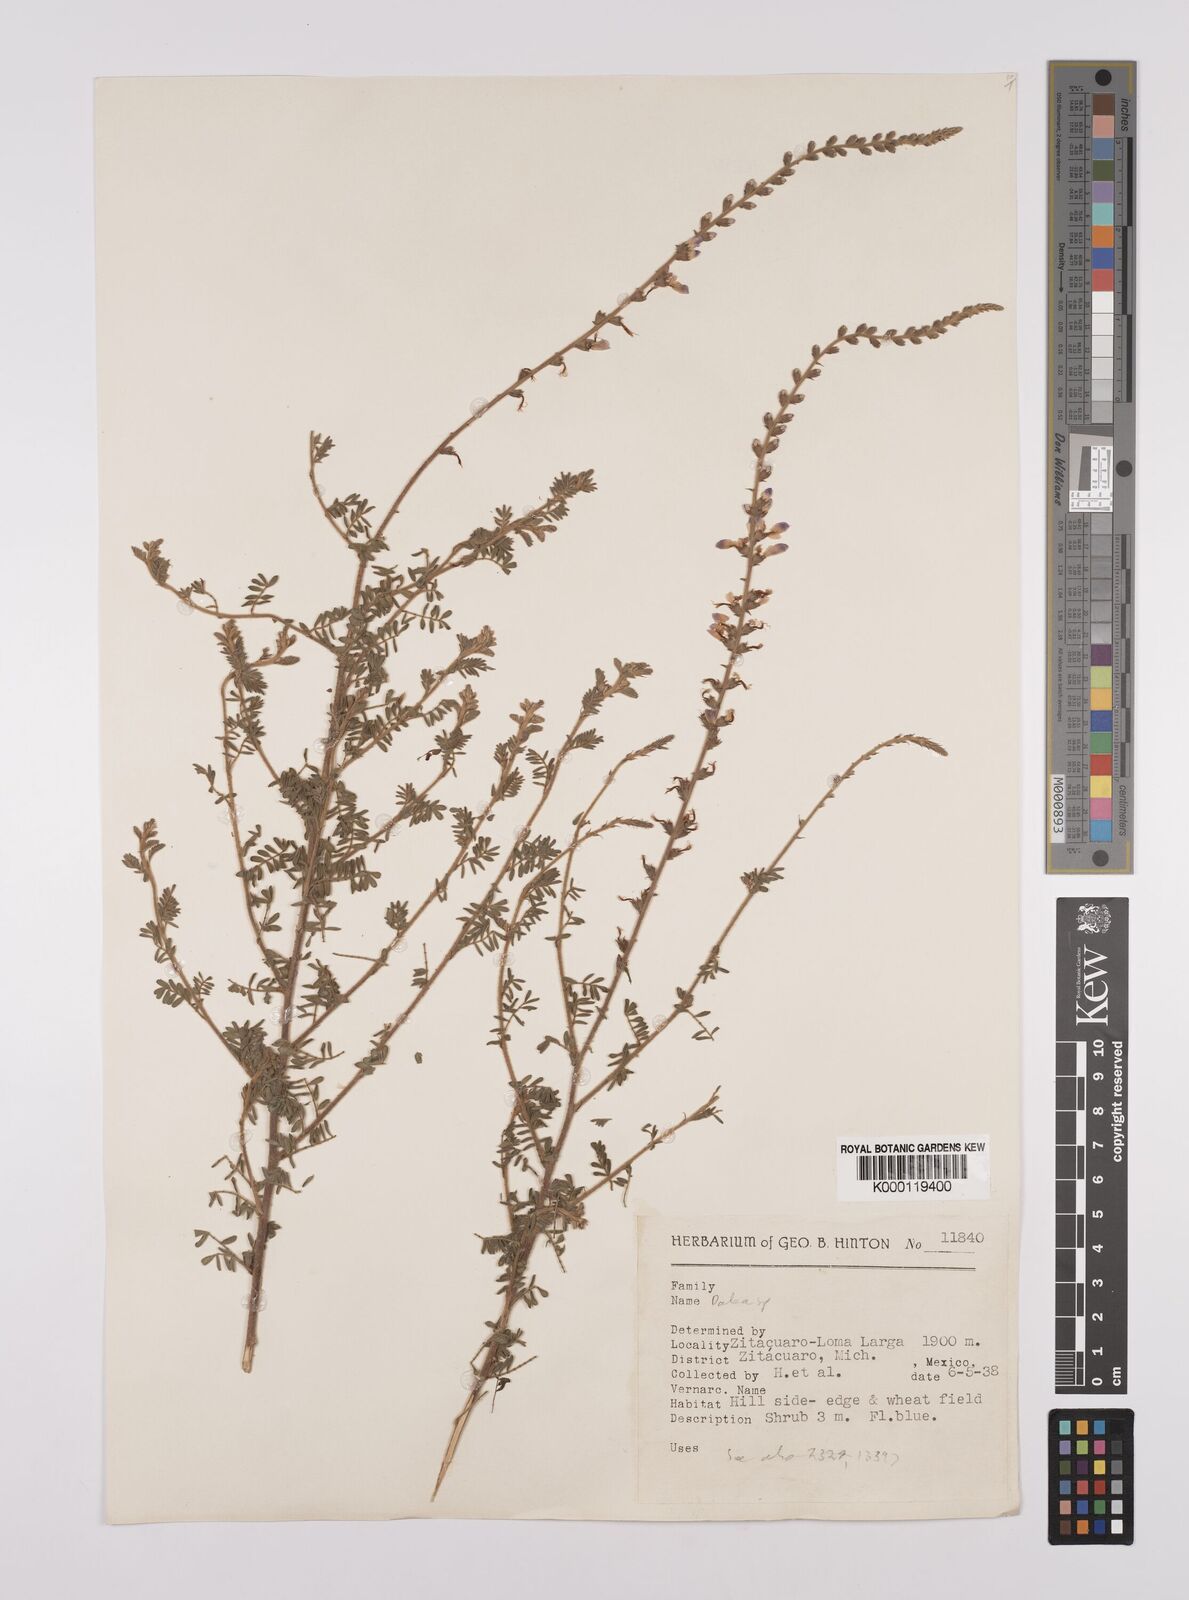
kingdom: Plantae
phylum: Tracheophyta
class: Magnoliopsida
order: Fabales
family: Fabaceae
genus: Dalea
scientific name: Dalea
